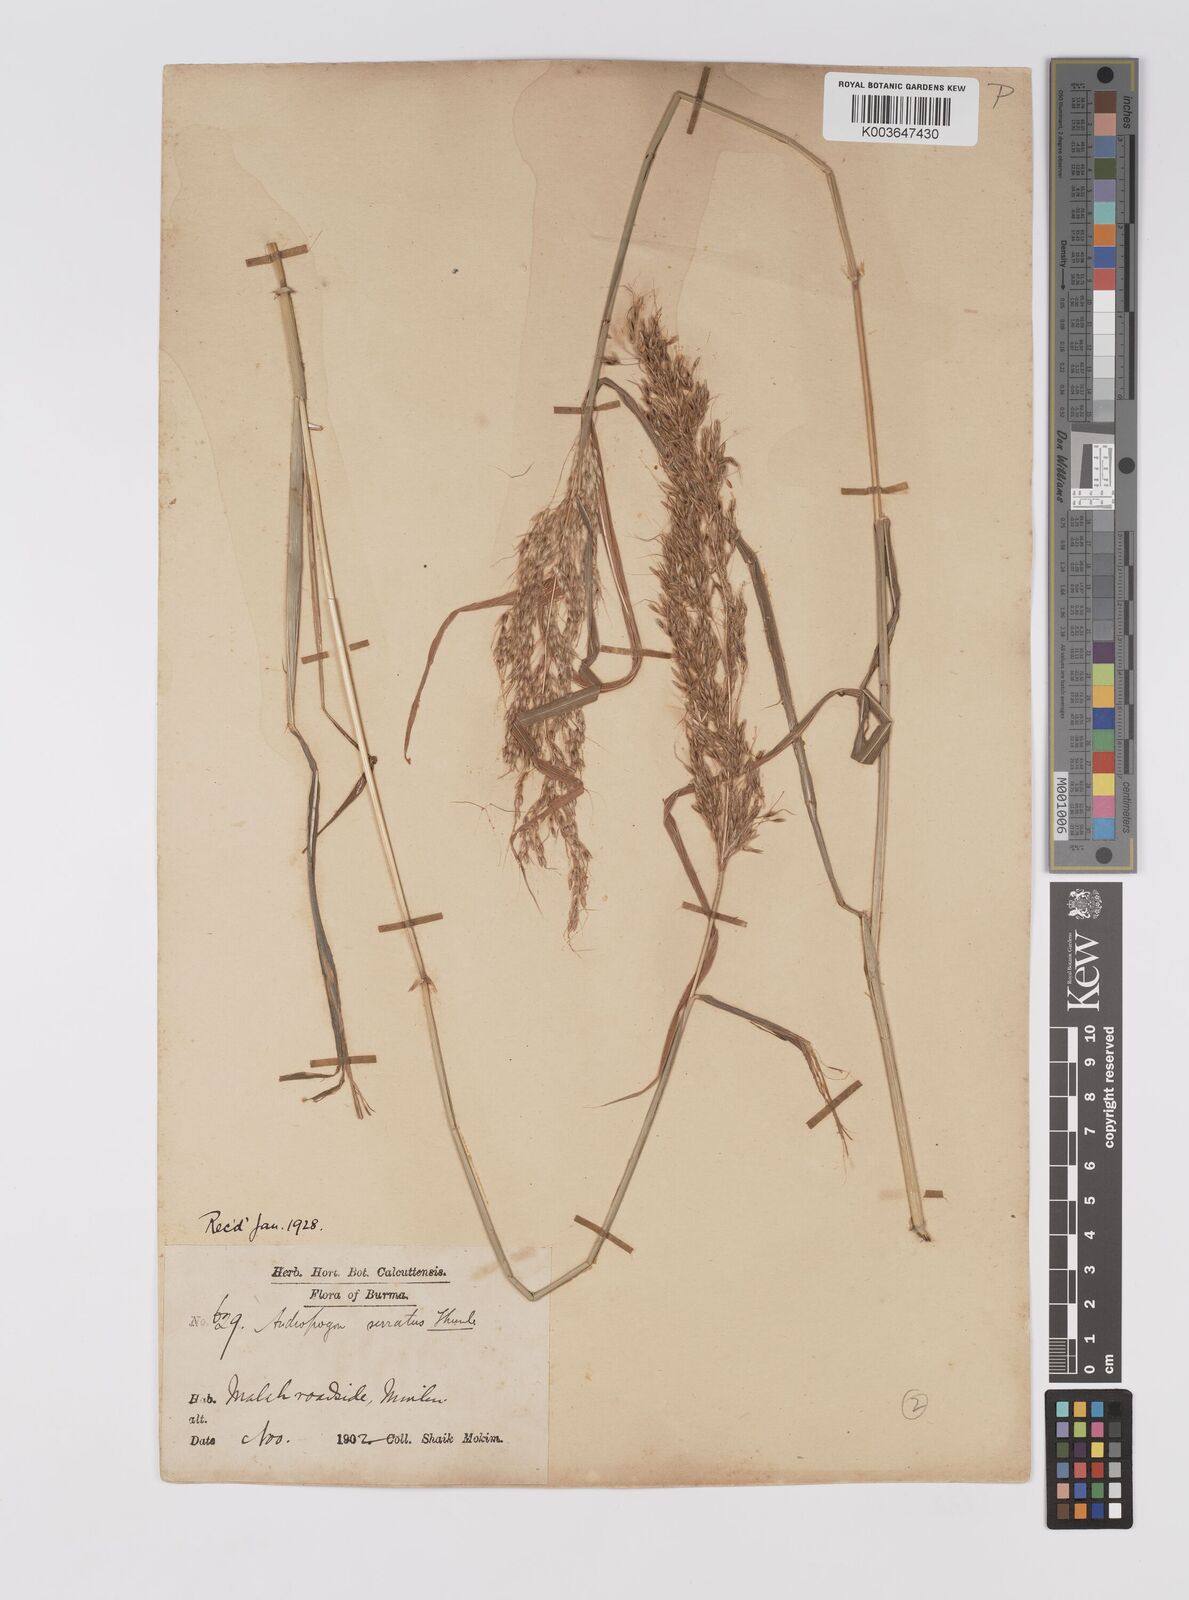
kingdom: Plantae
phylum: Tracheophyta
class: Liliopsida
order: Poales
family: Poaceae
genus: Sorghum
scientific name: Sorghum nitidum
